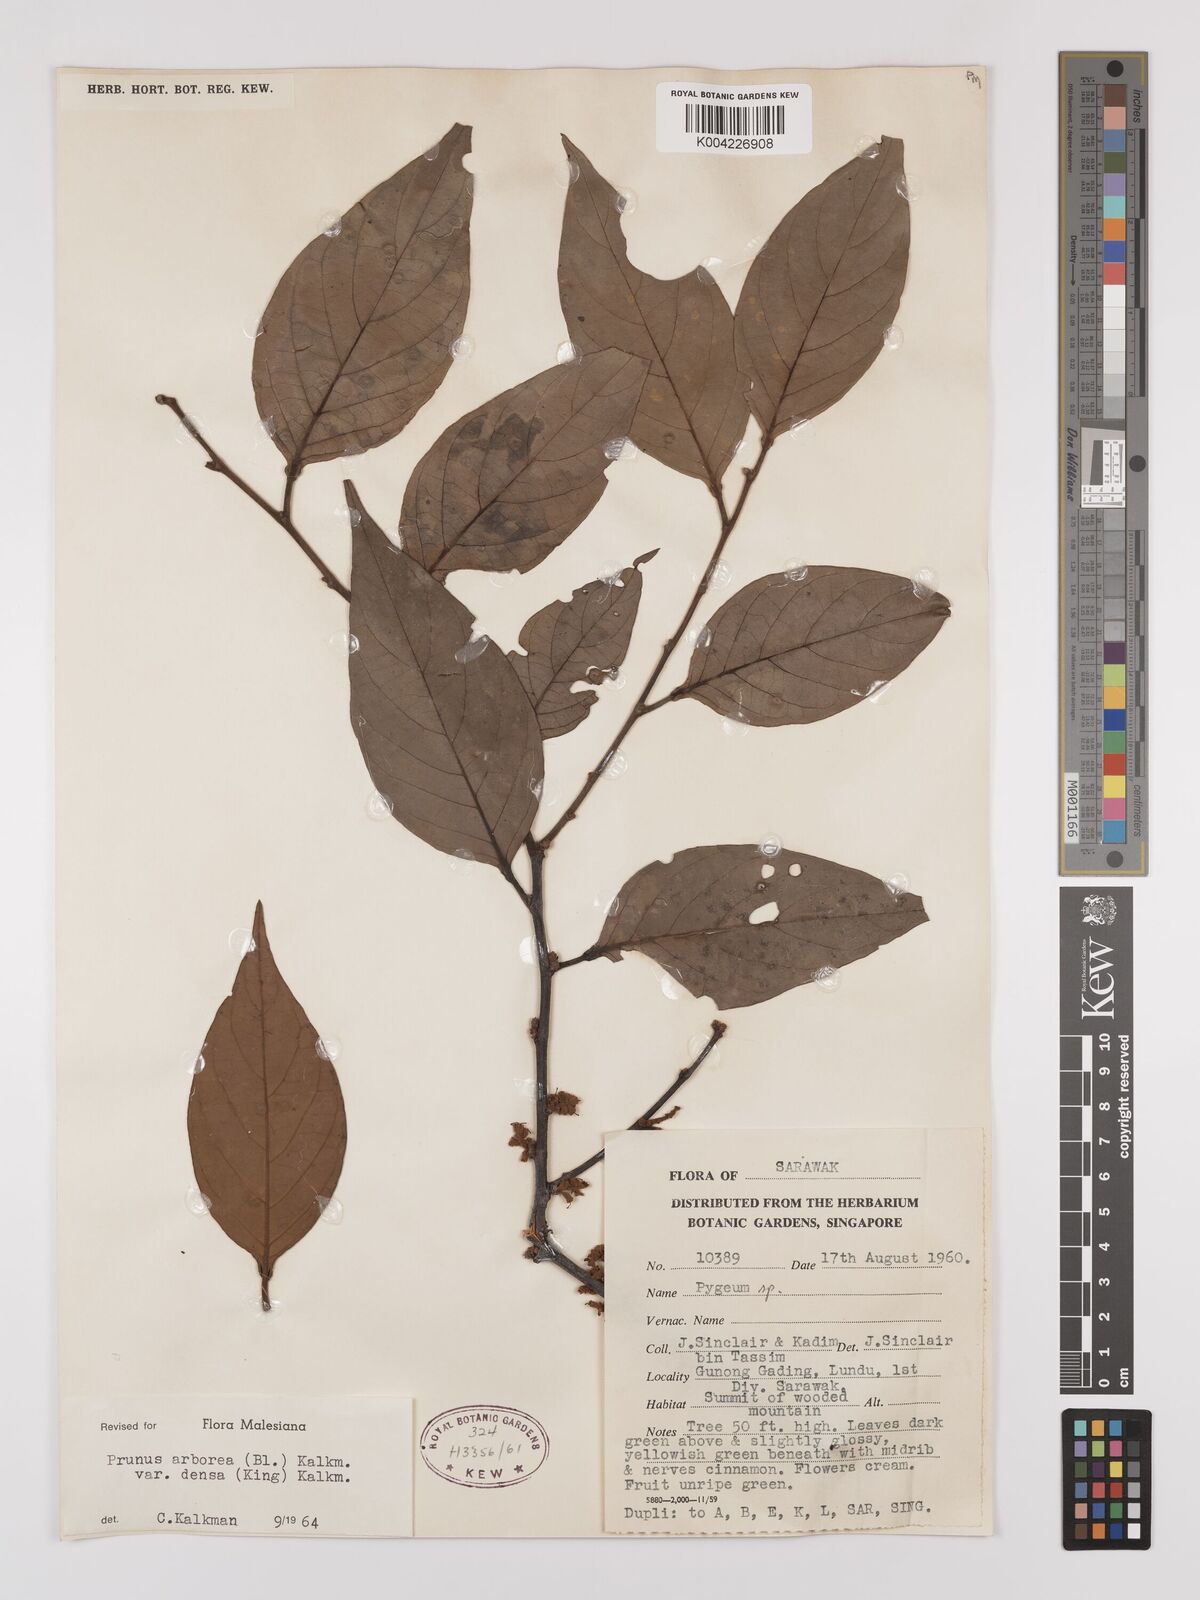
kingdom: Plantae
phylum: Tracheophyta
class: Magnoliopsida
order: Rosales
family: Rosaceae
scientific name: Rosaceae
